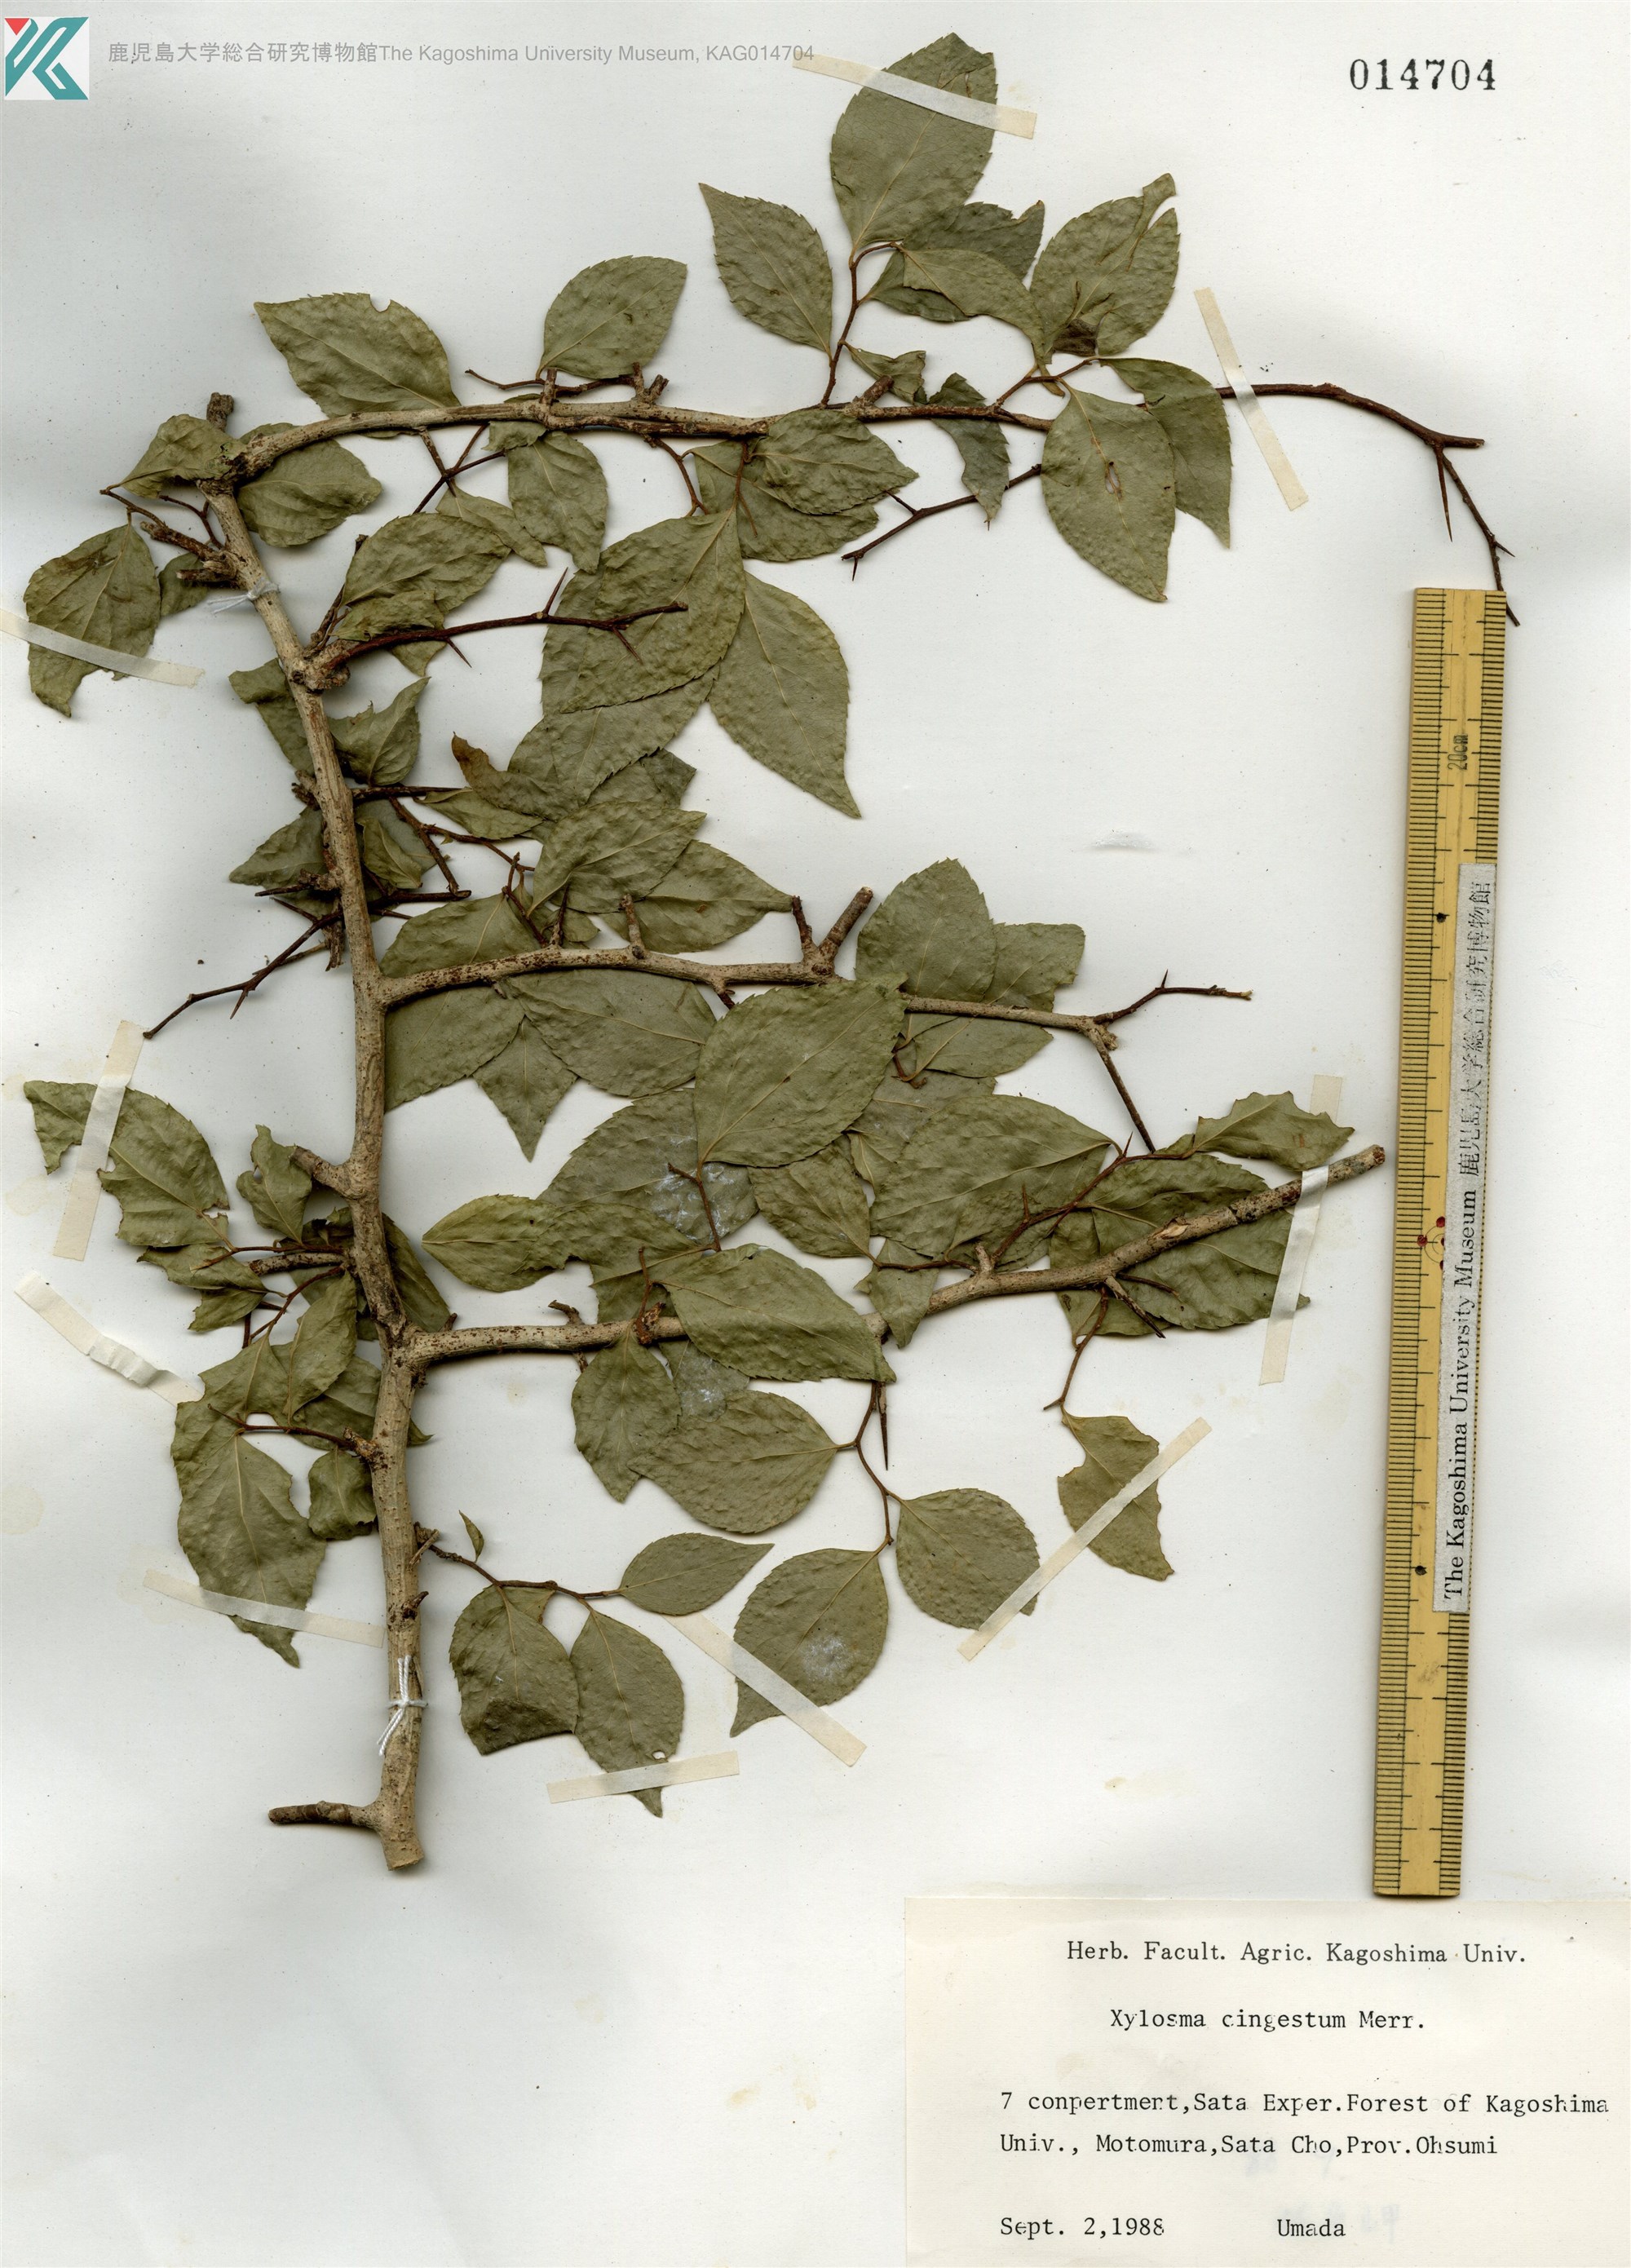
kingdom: Plantae
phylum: Tracheophyta
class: Magnoliopsida
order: Malpighiales
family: Salicaceae
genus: Xylosma
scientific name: Xylosma racemosum
